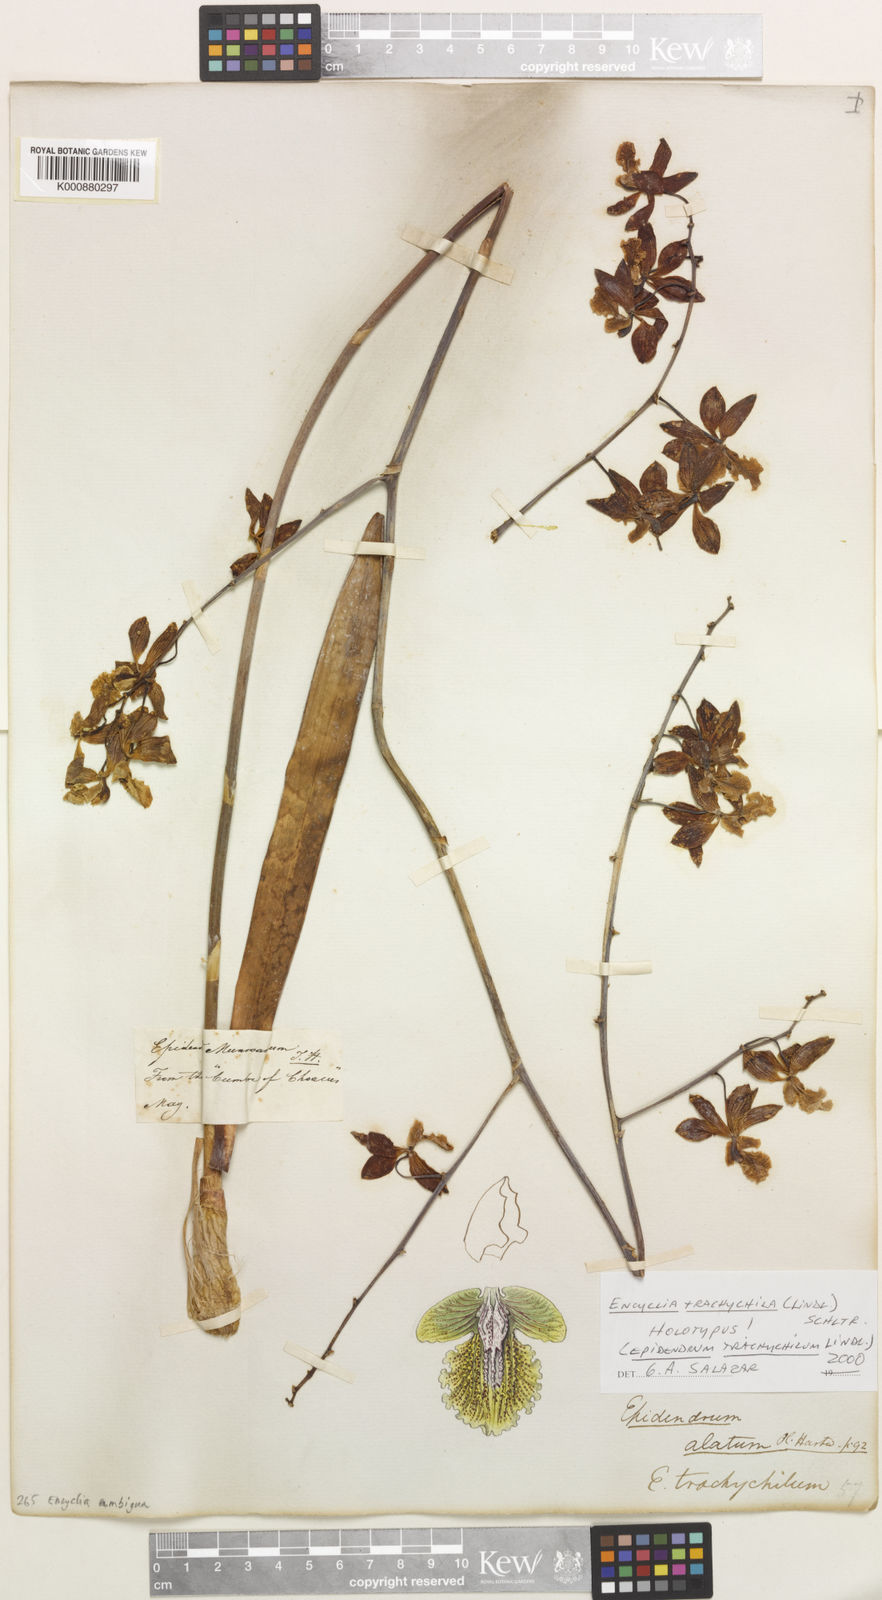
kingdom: Plantae
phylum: Tracheophyta
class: Liliopsida
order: Asparagales
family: Orchidaceae
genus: Encyclia
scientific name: Encyclia ambigua
